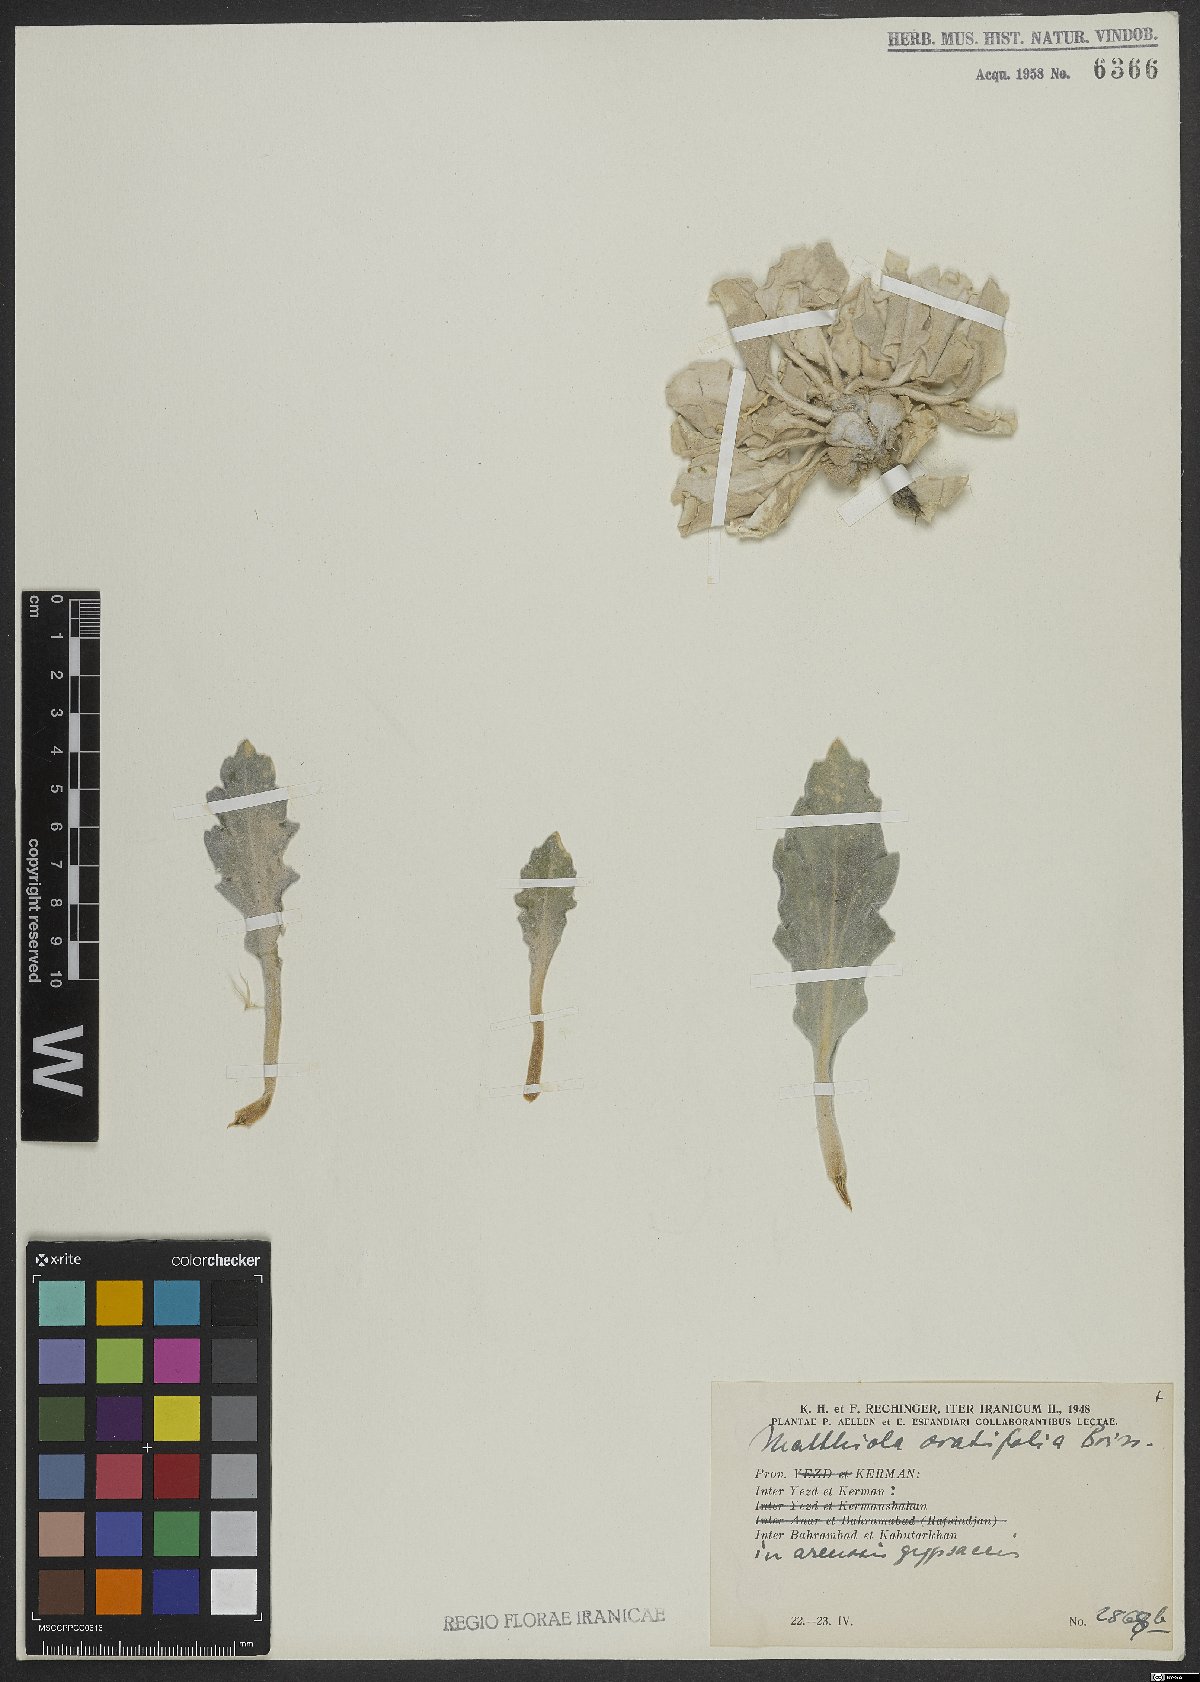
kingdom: Plantae
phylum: Tracheophyta
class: Magnoliopsida
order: Brassicales
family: Brassicaceae
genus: Matthiola
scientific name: Matthiola ovatifolia
